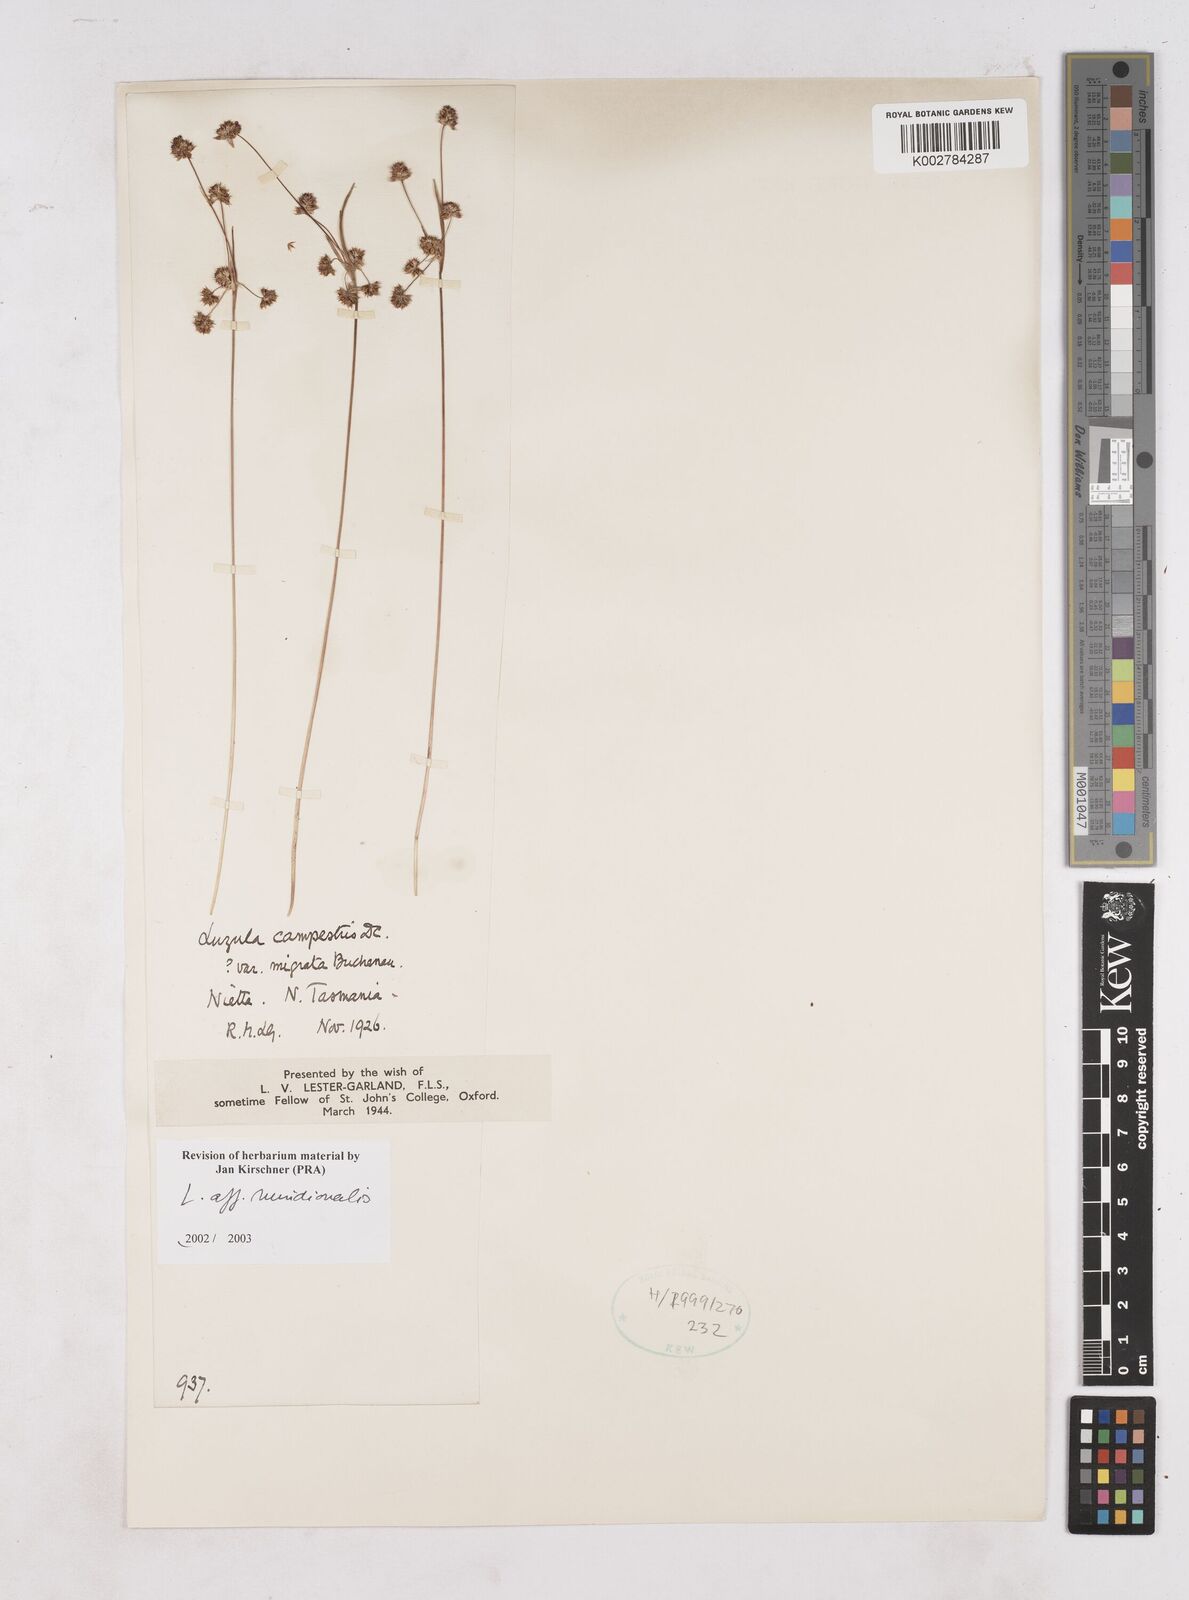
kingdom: Plantae
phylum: Tracheophyta
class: Liliopsida
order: Poales
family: Juncaceae
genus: Luzula
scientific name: Luzula meridionalis
